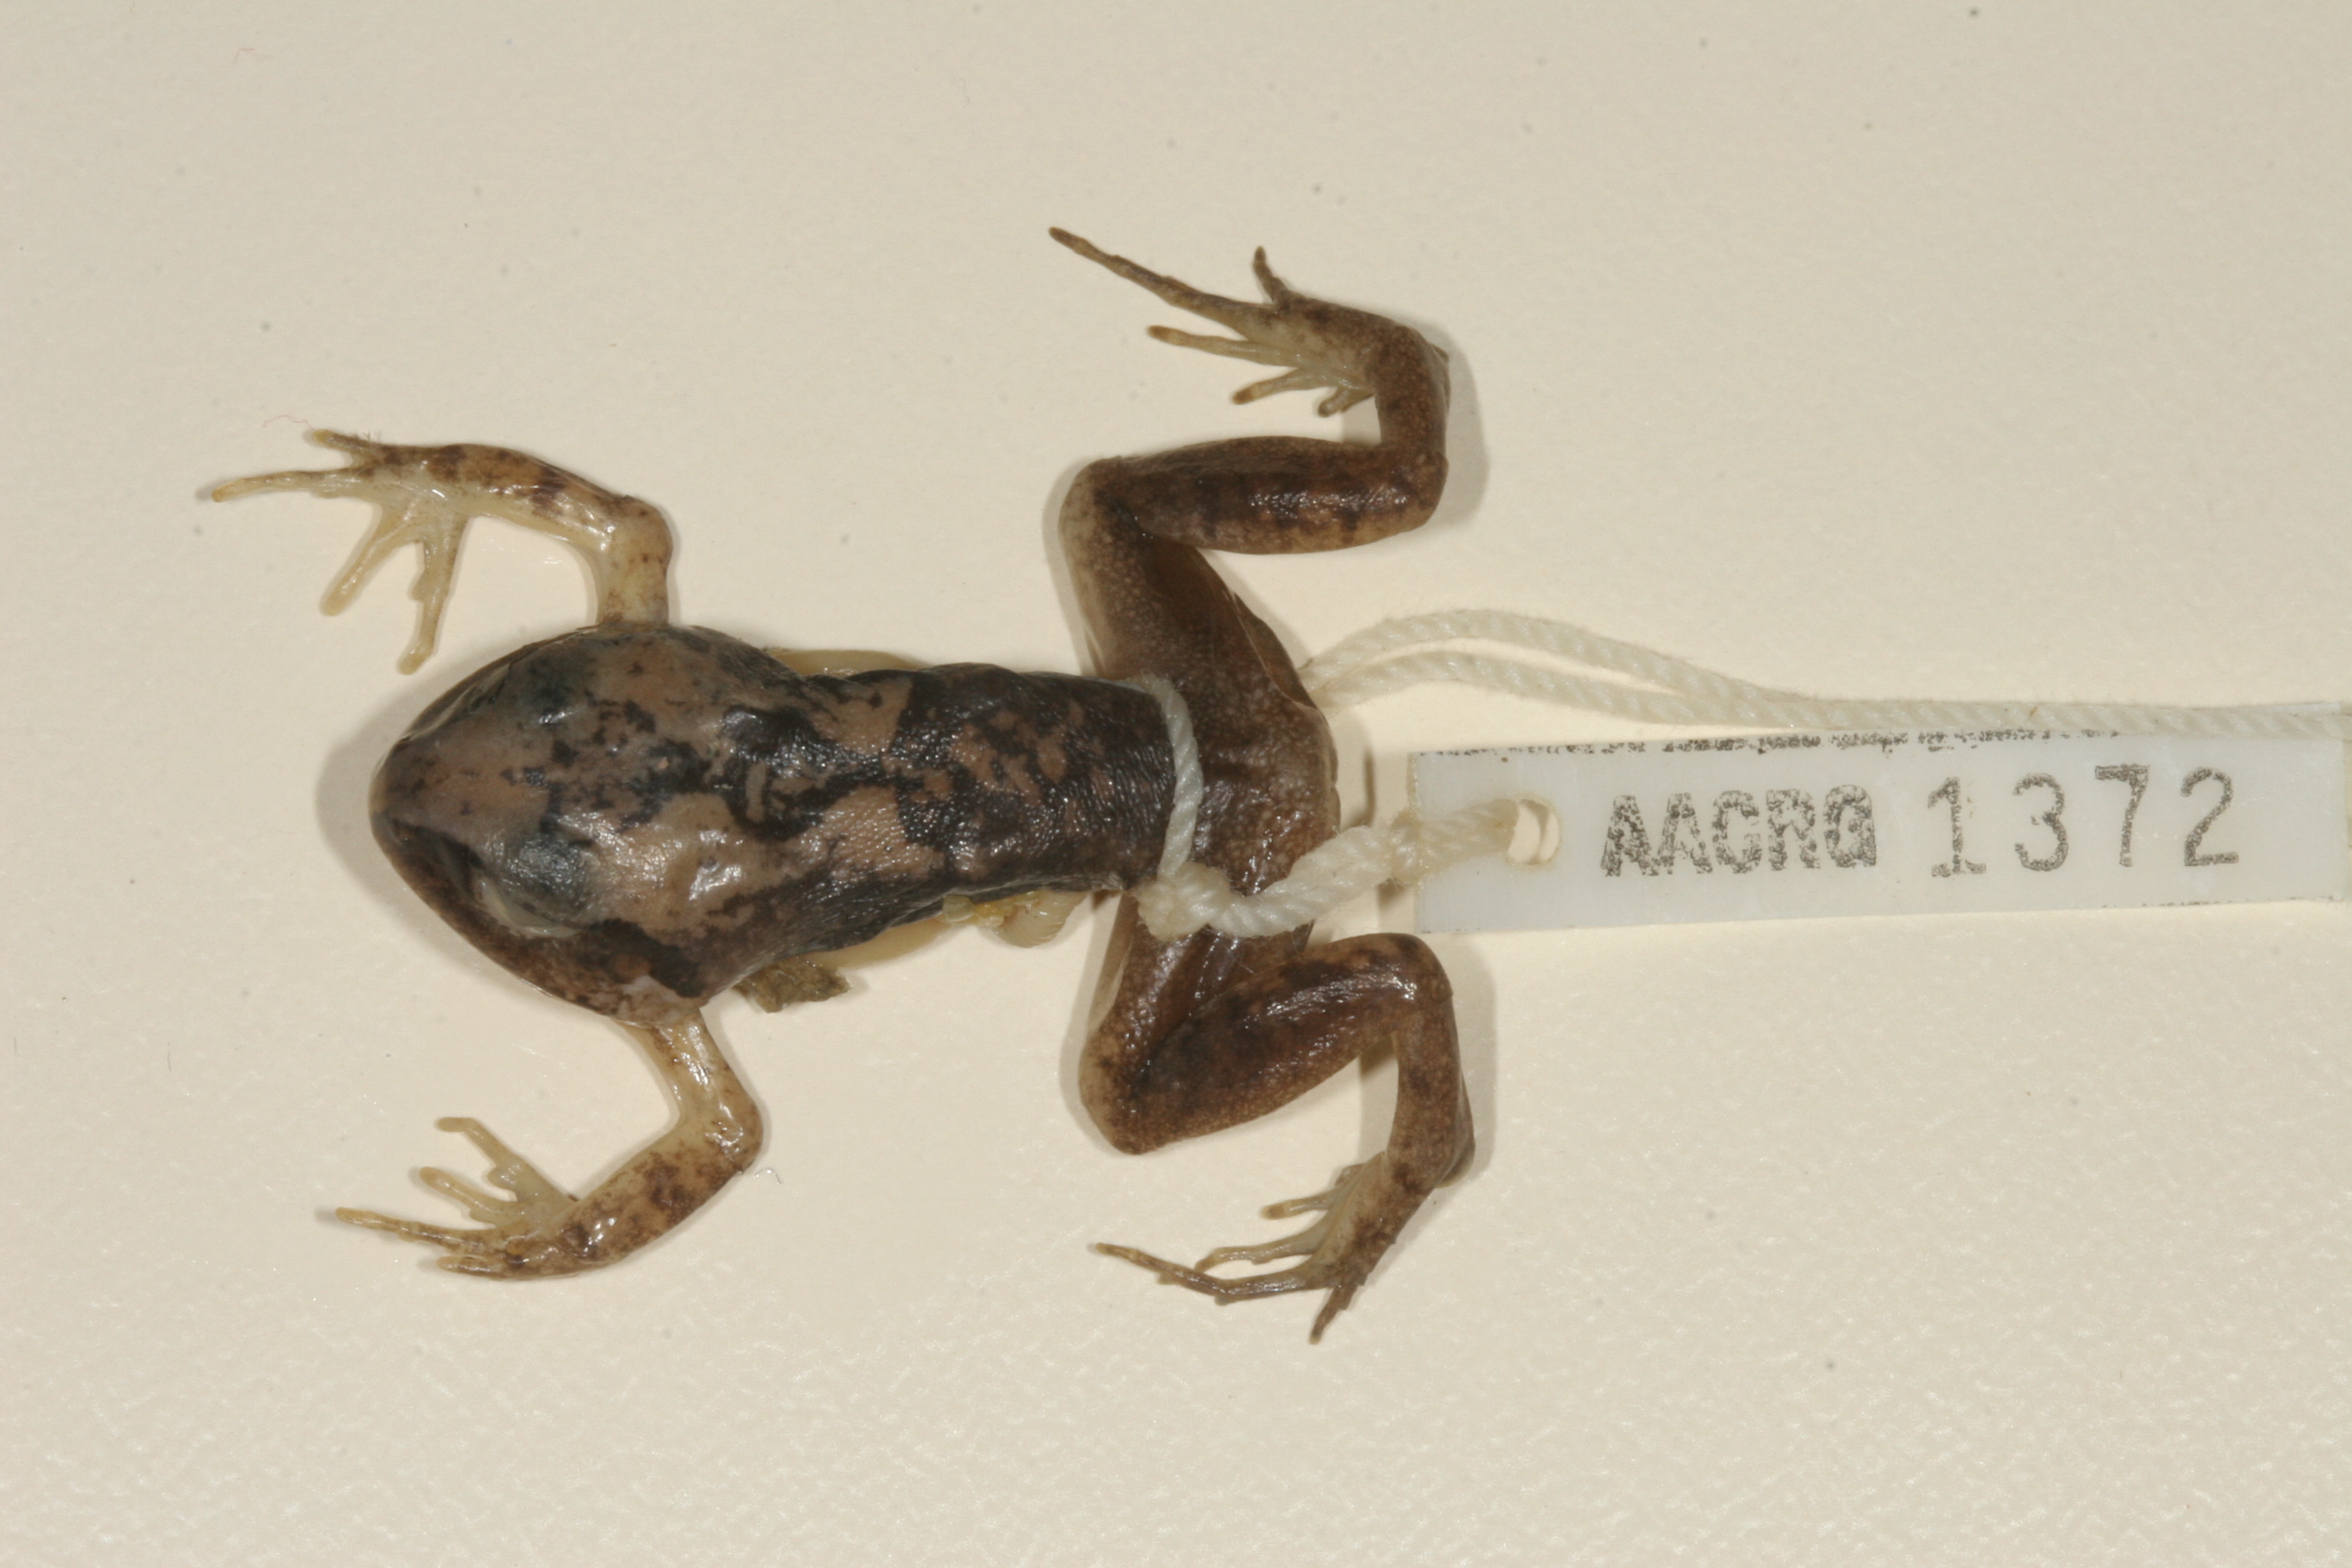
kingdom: Animalia
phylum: Chordata
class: Amphibia
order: Anura
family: Arthroleptidae
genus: Arthroleptis
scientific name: Arthroleptis stenodactylus
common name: Dune squeaker
